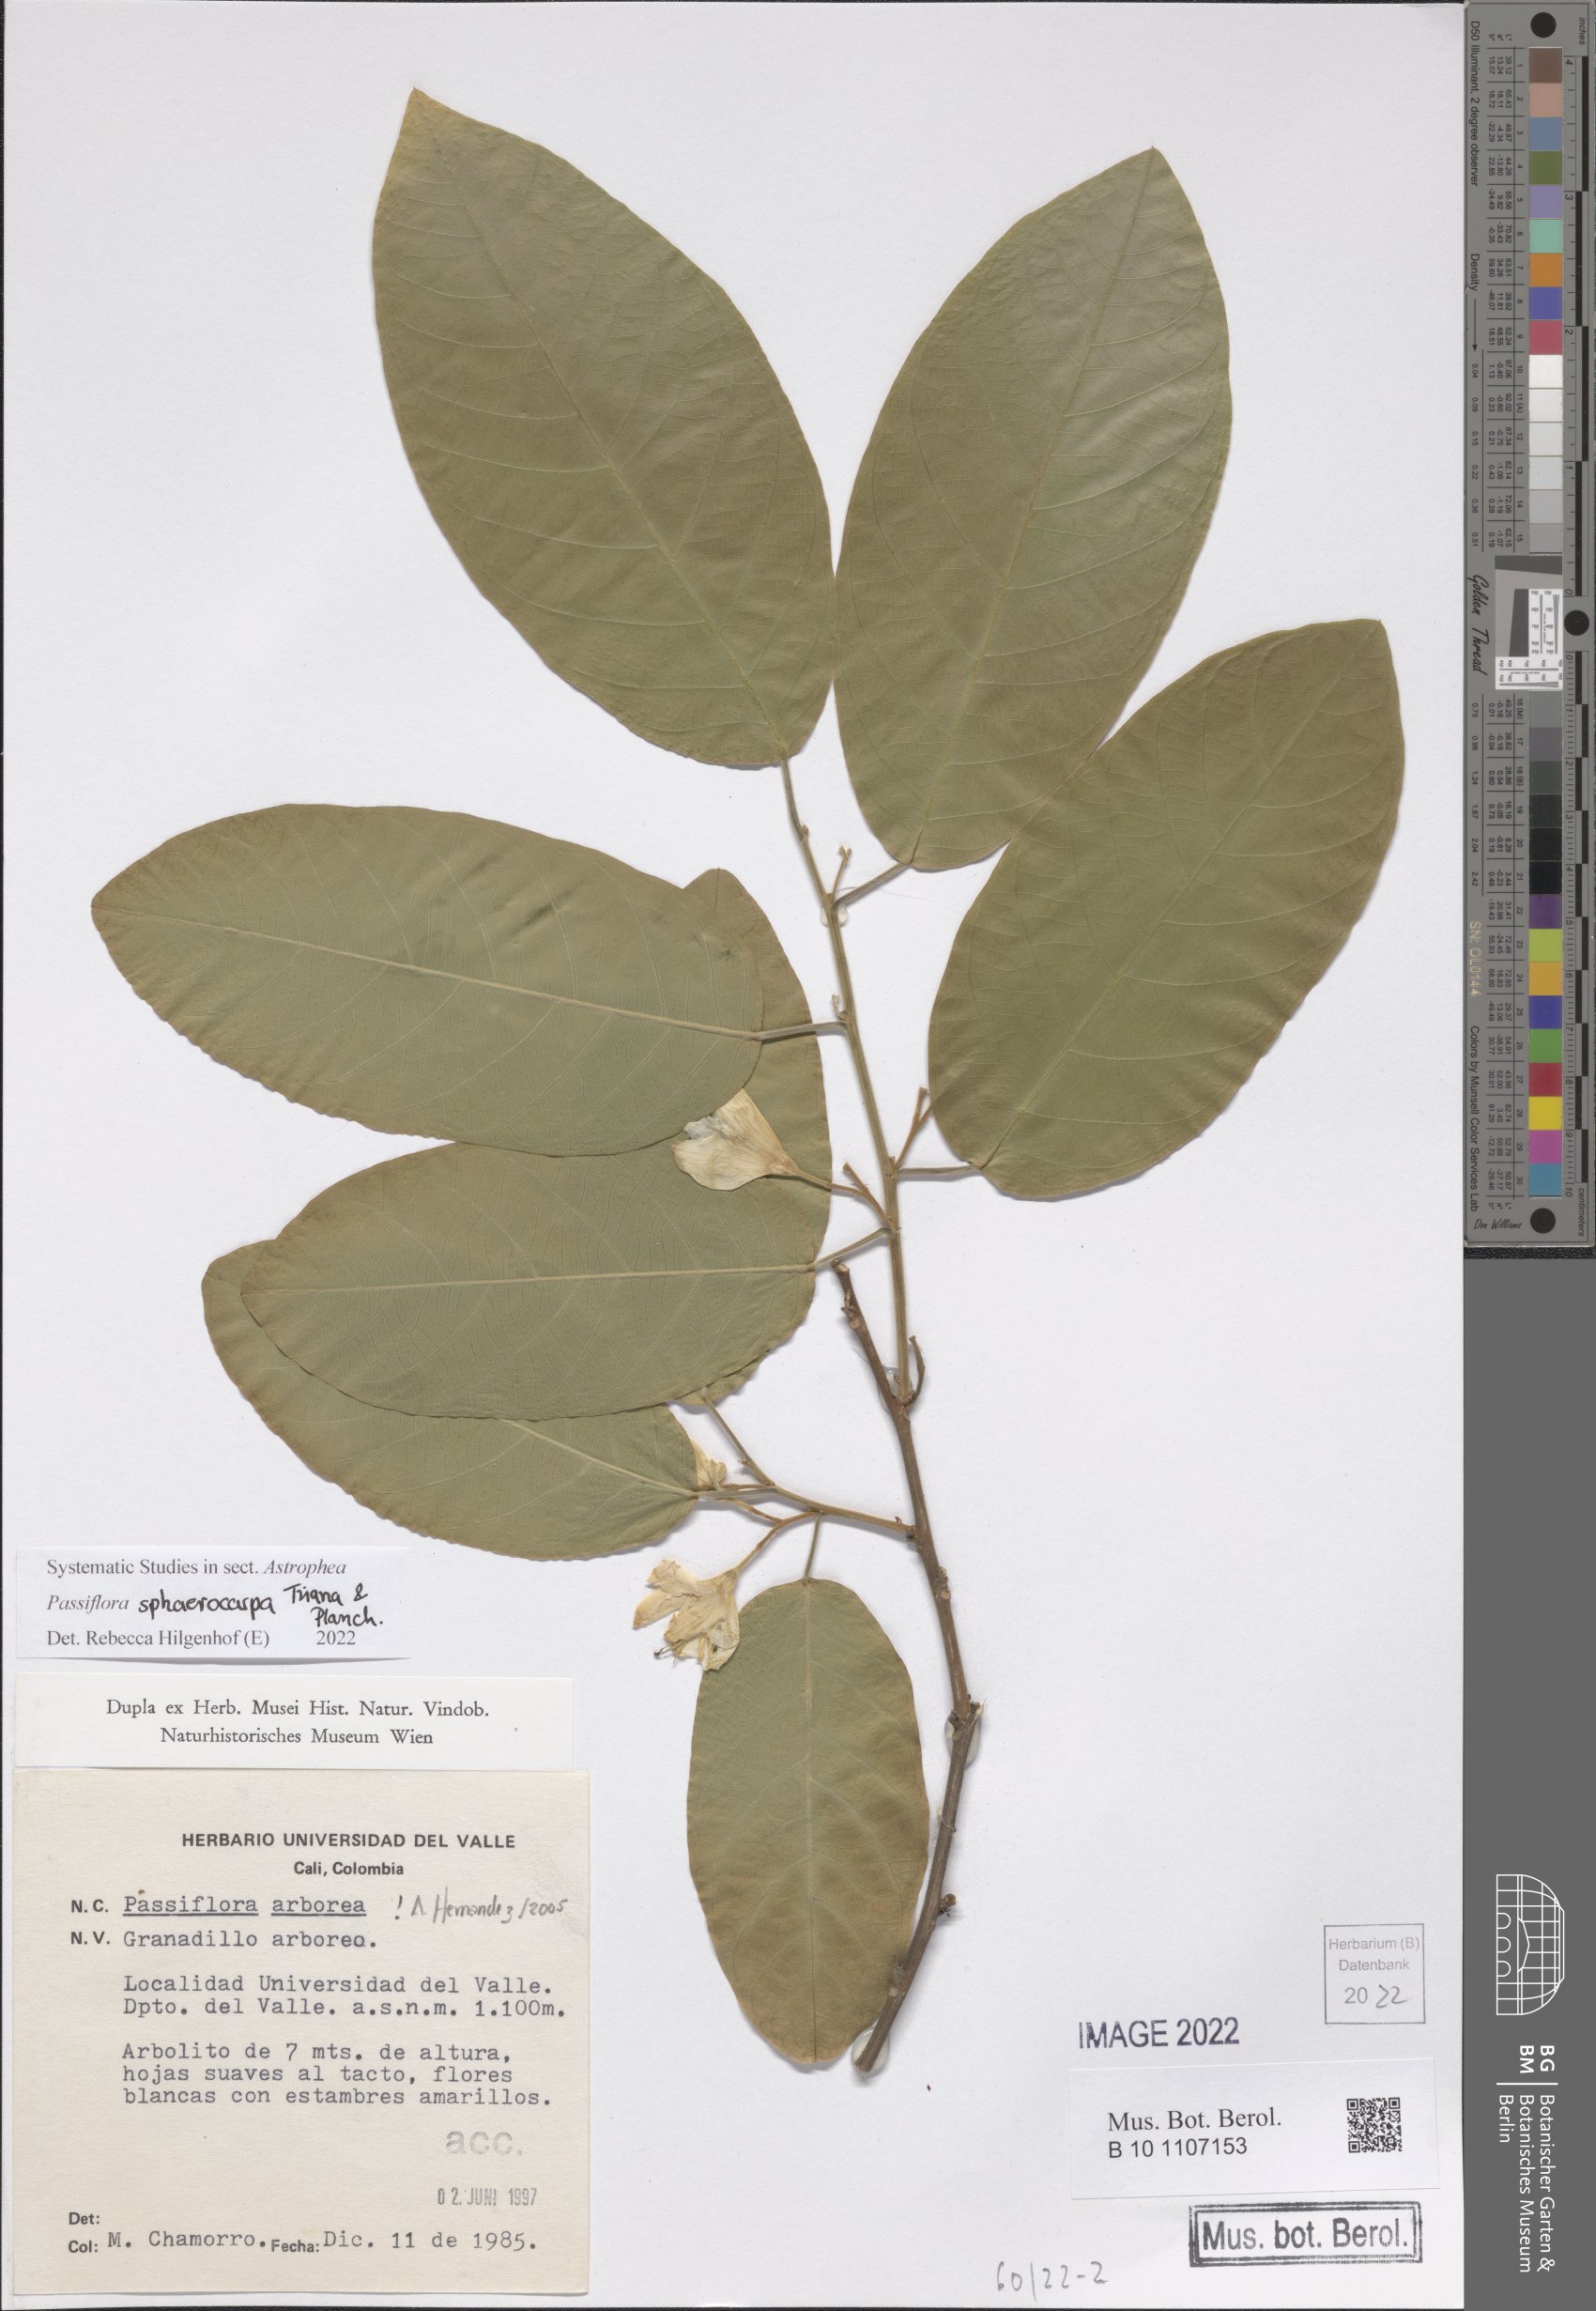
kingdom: Plantae
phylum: Tracheophyta
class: Magnoliopsida
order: Malpighiales
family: Passifloraceae
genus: Passiflora
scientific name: Passiflora sphaerocarpa
